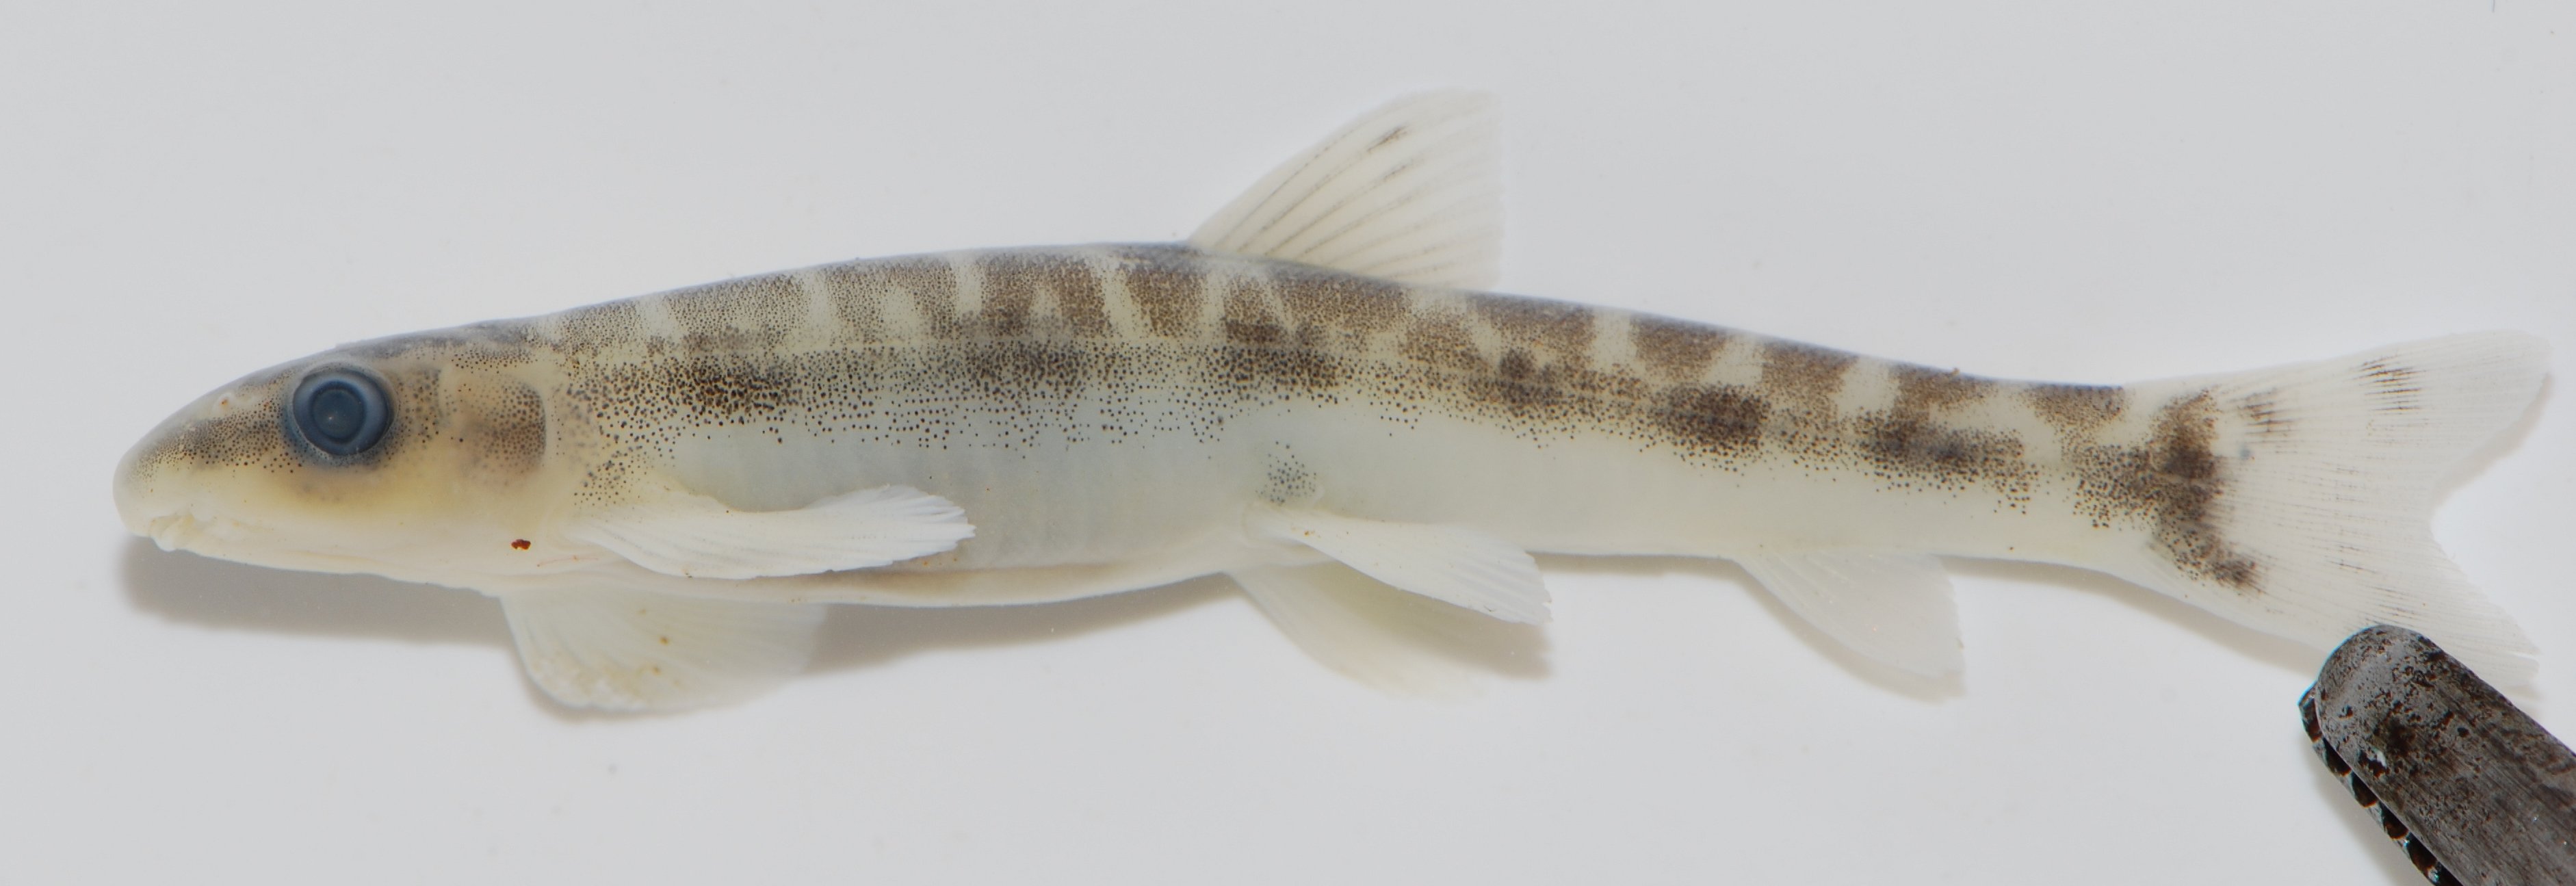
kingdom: Animalia
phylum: Chordata
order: Gonorynchiformes
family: Kneriidae
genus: Parakneria
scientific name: Parakneria
